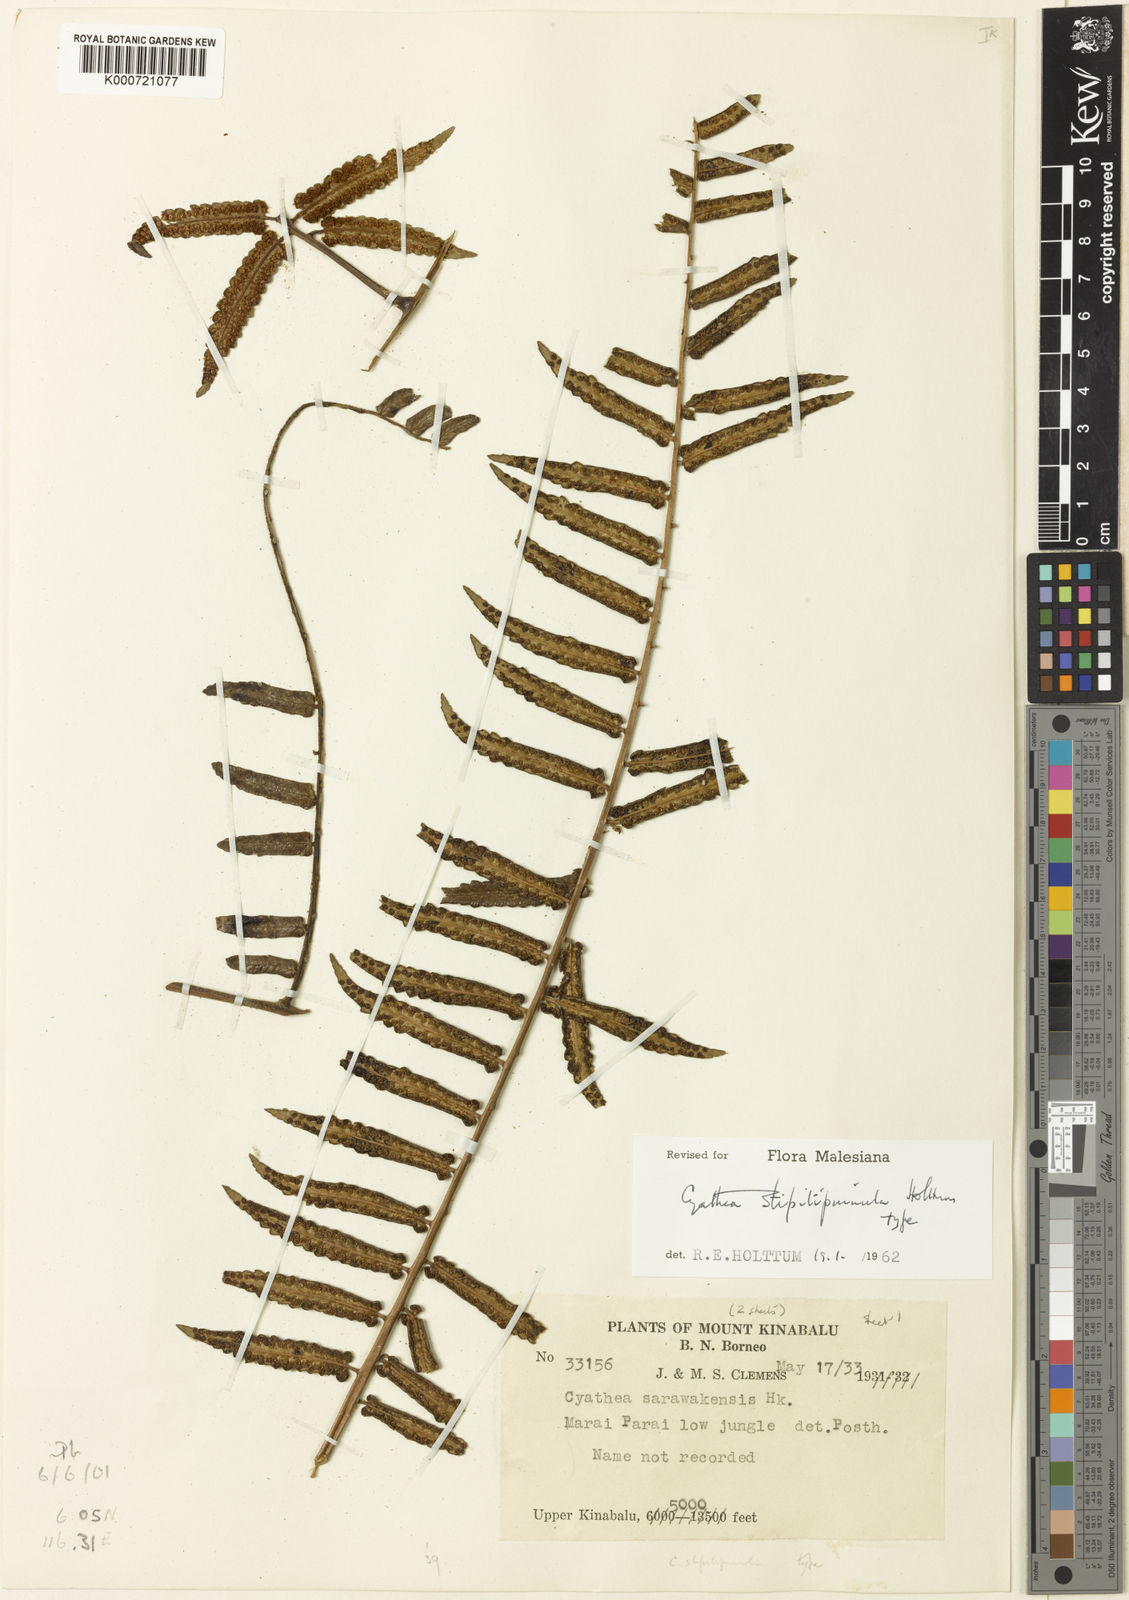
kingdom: Plantae
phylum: Tracheophyta
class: Polypodiopsida
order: Cyatheales
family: Cyatheaceae
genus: Sphaeropteris
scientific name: Sphaeropteris stipitipinnula
